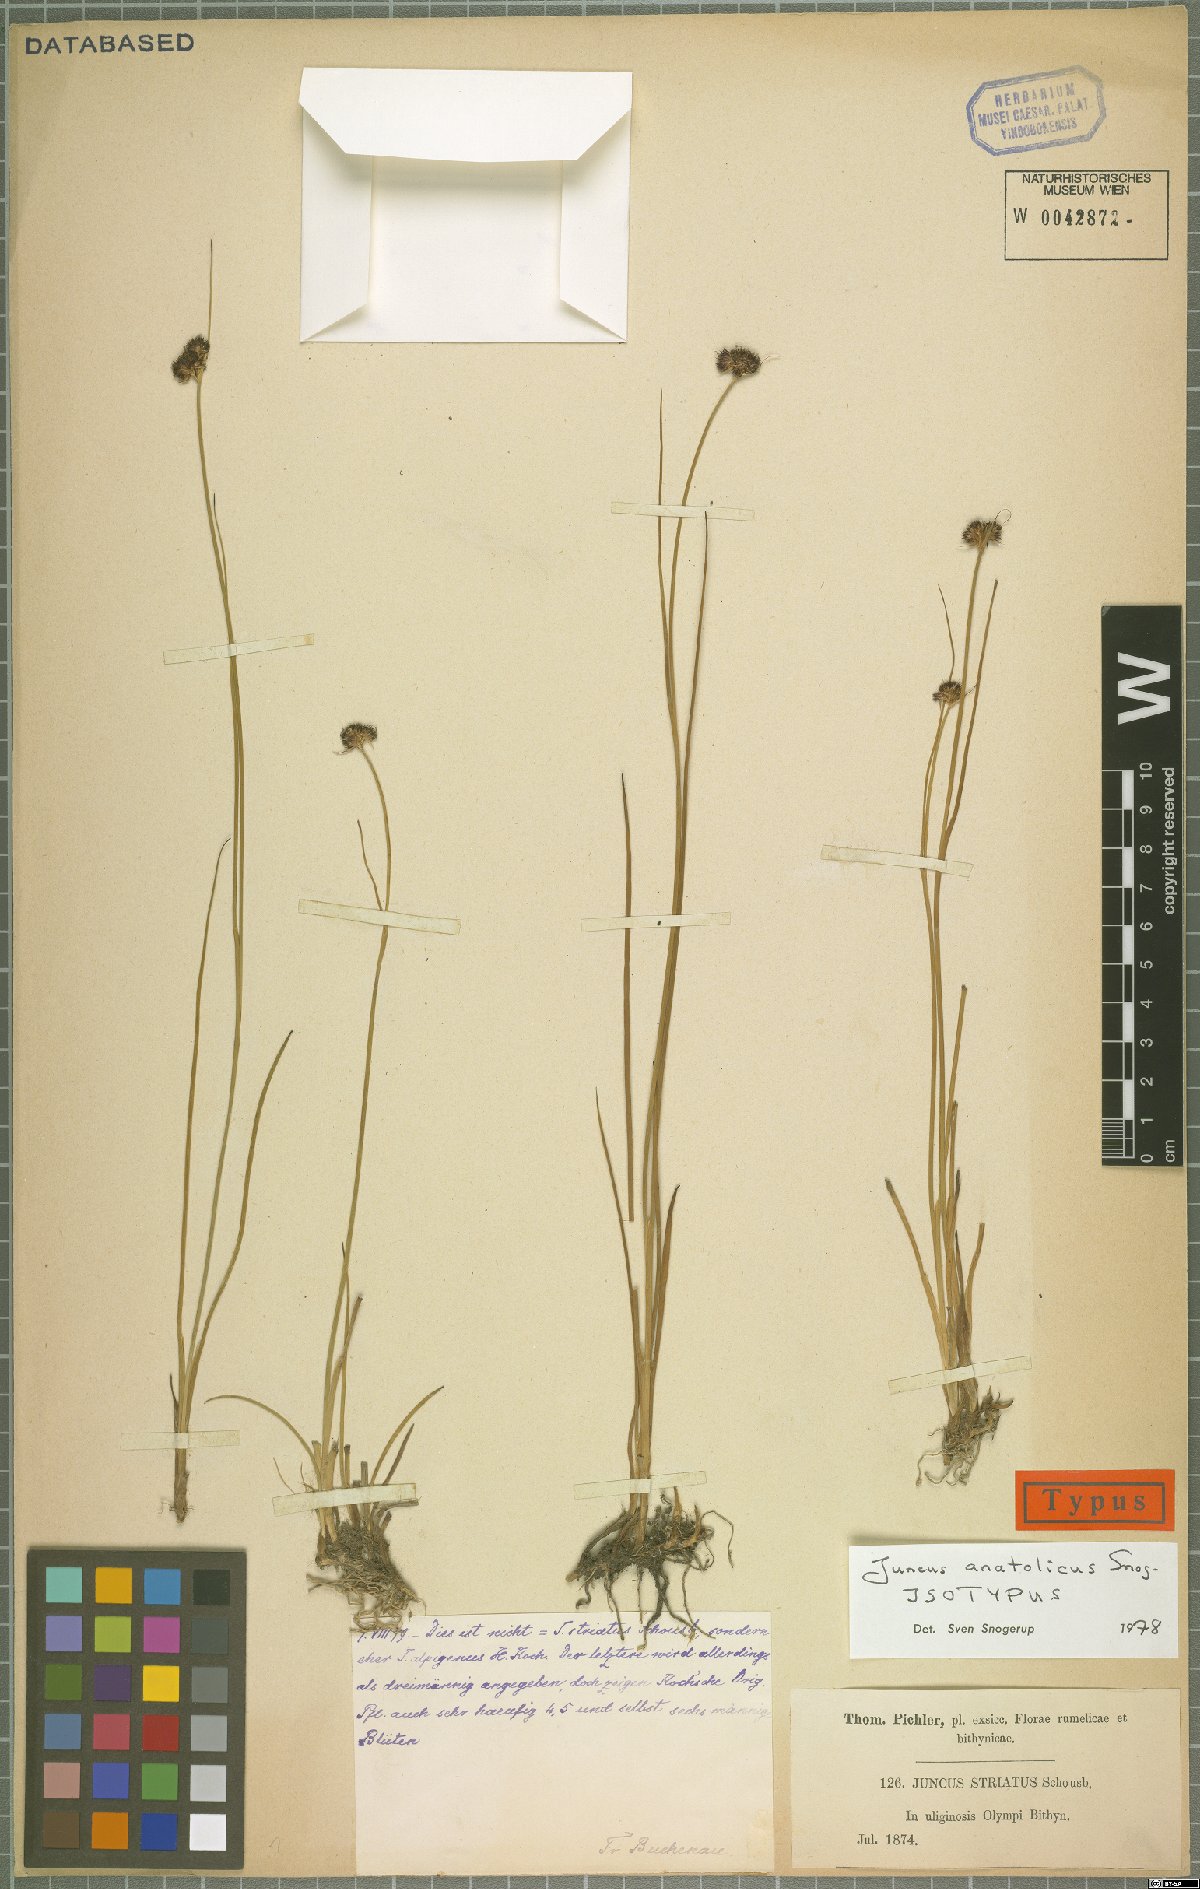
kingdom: Plantae
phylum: Tracheophyta
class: Liliopsida
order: Poales
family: Juncaceae
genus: Juncus
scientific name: Juncus anatolicus
